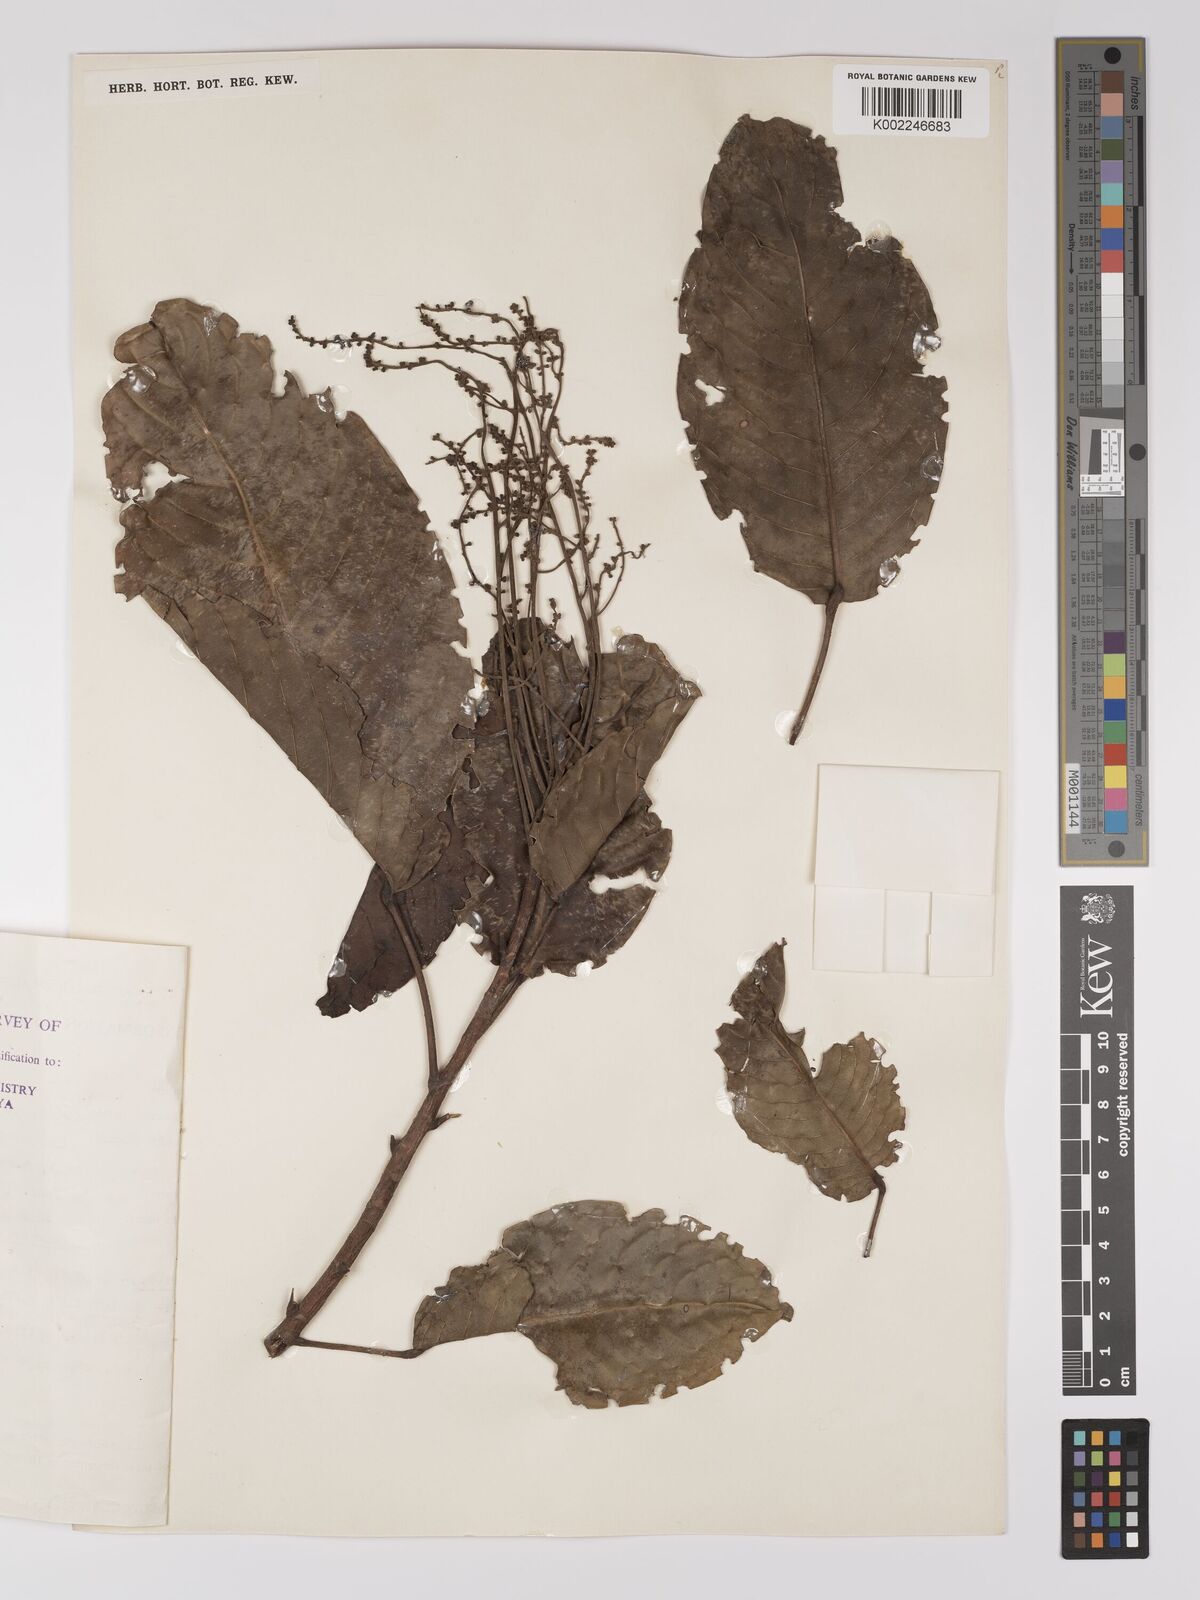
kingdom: Plantae
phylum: Tracheophyta
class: Magnoliopsida
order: Malpighiales
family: Centroplacaceae
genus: Bhesa
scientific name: Bhesa paniculata
